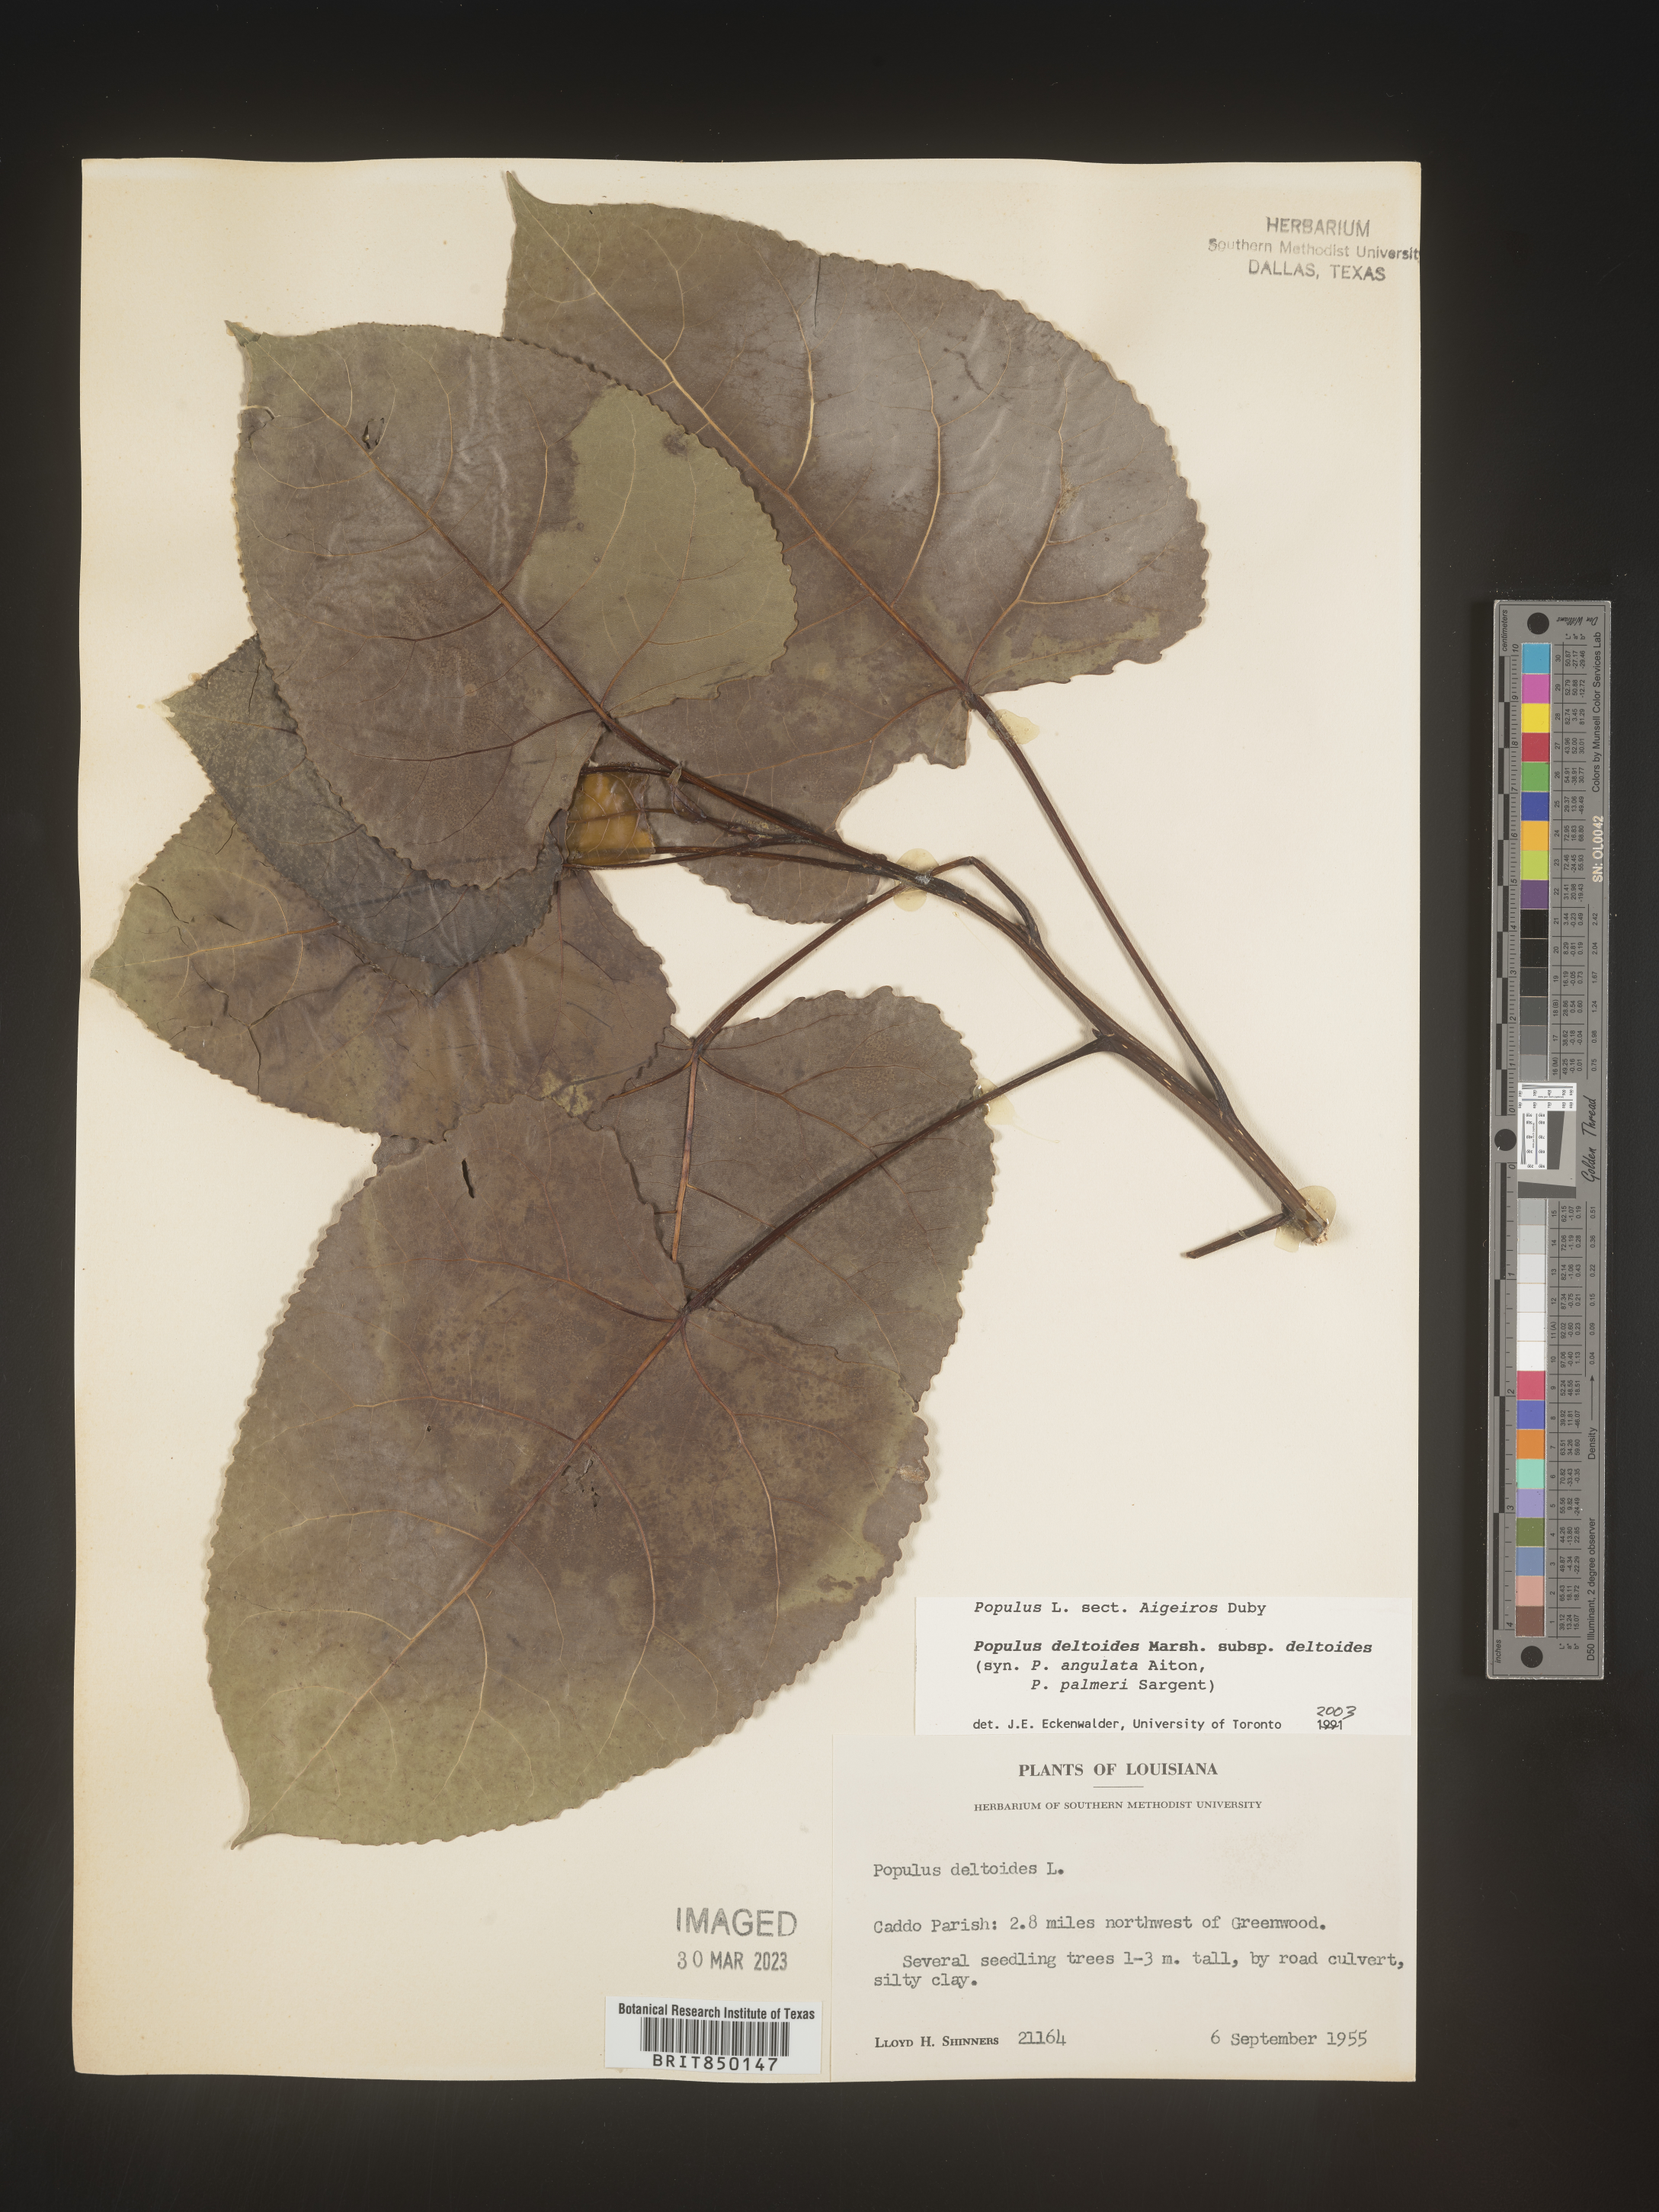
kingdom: Plantae
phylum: Tracheophyta
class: Magnoliopsida
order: Malpighiales
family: Salicaceae
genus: Populus
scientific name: Populus deltoides
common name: Eastern cottonwood
